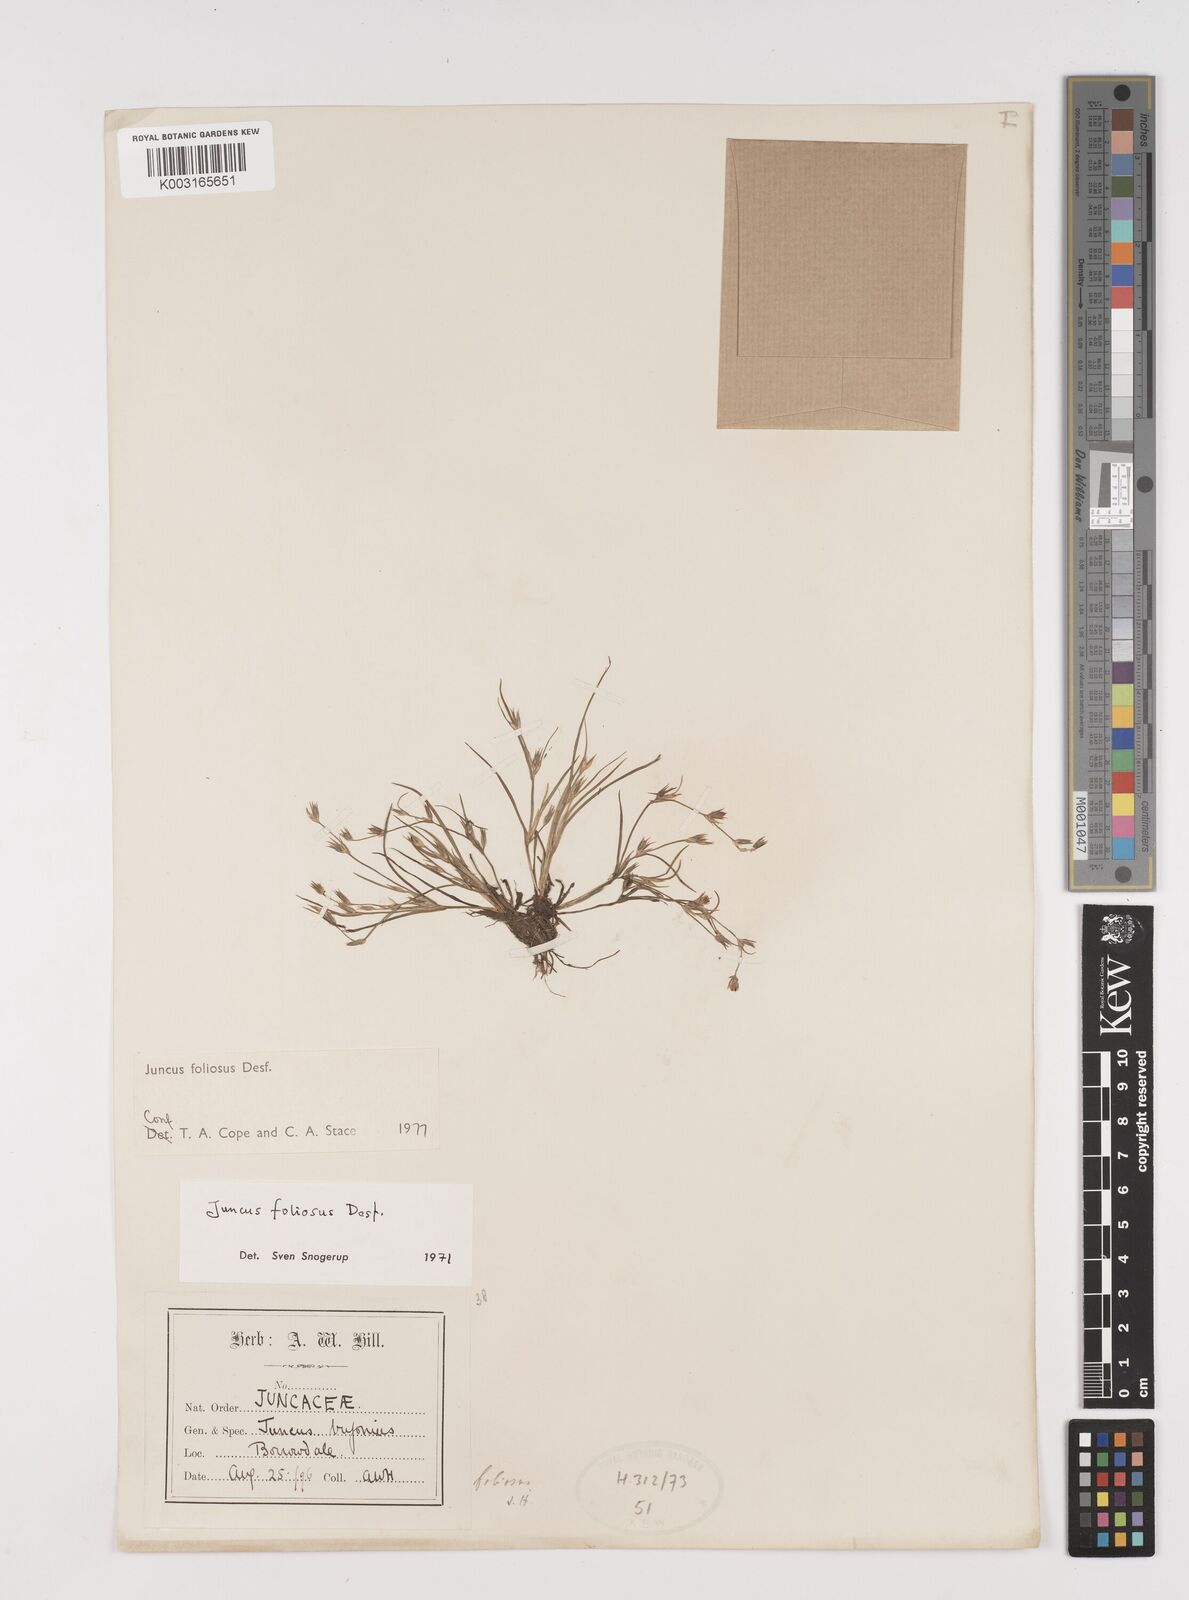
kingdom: Plantae
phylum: Tracheophyta
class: Liliopsida
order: Poales
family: Juncaceae
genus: Juncus
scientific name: Juncus foliosus
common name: Leafy rush
